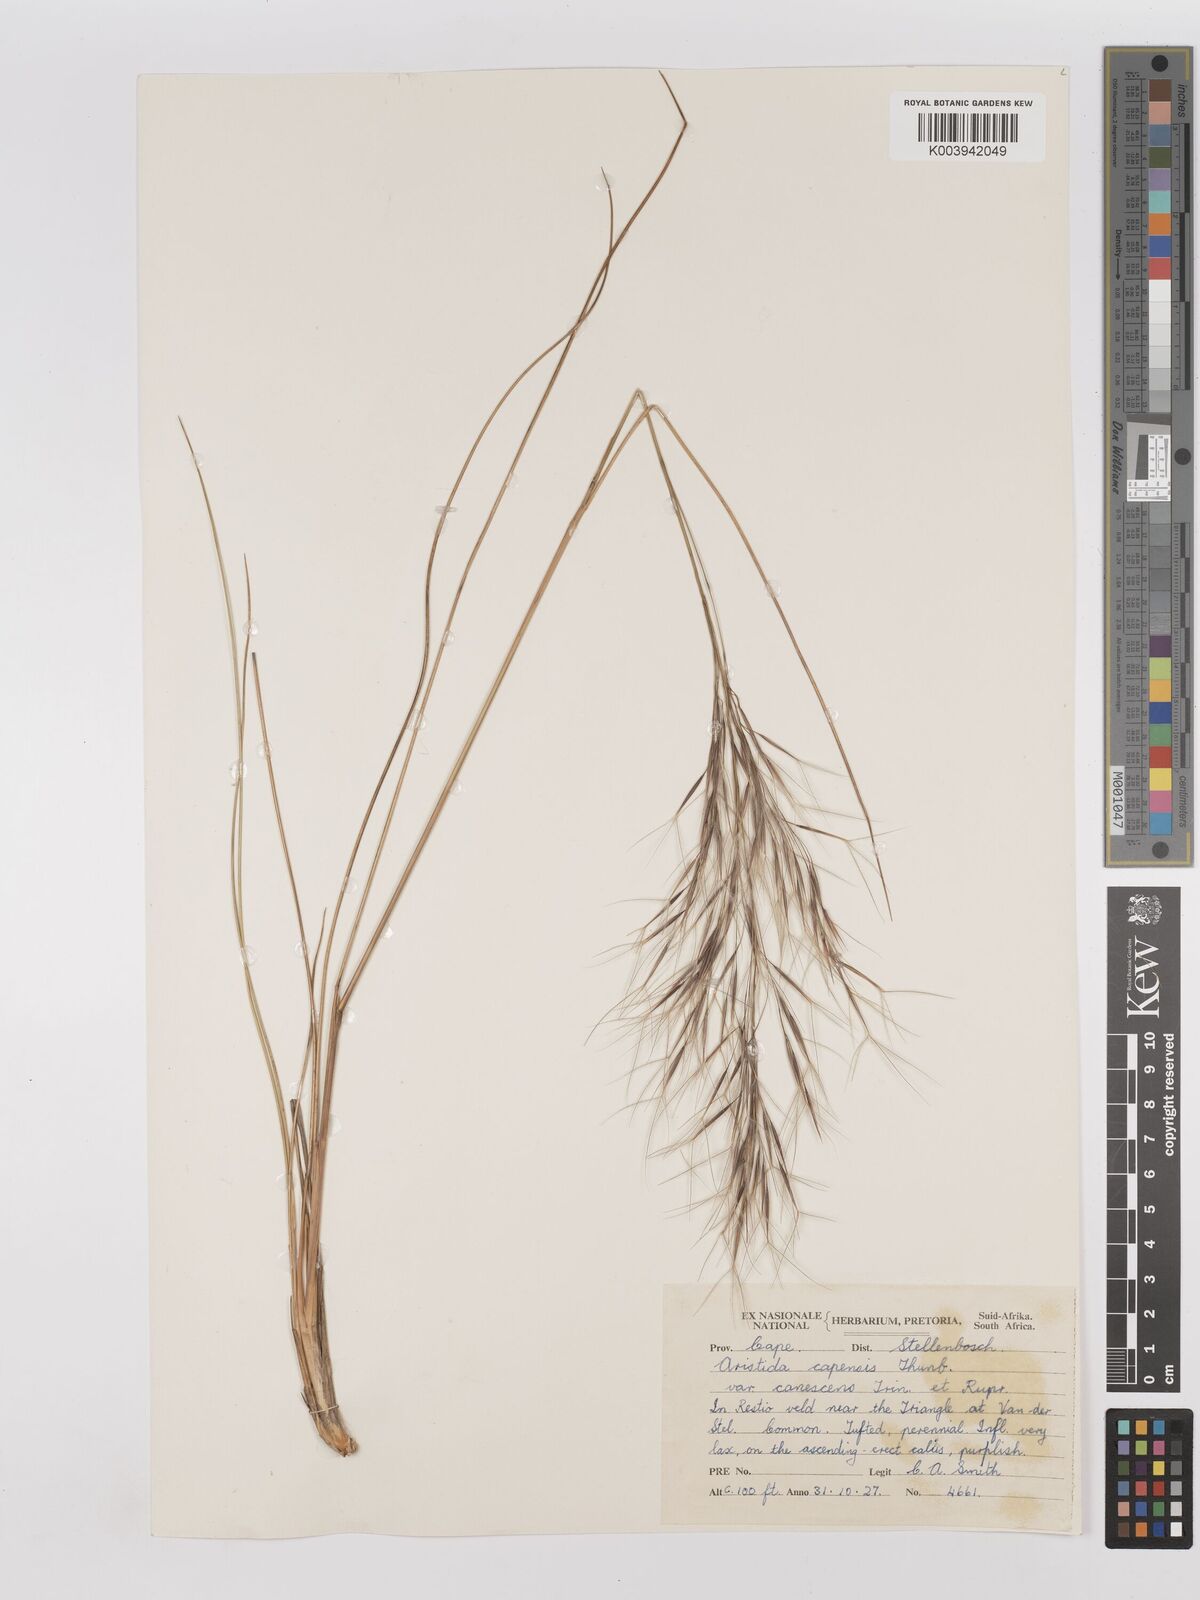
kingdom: Plantae
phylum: Tracheophyta
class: Liliopsida
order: Poales
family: Poaceae
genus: Stipagrostis
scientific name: Stipagrostis zeyheri
